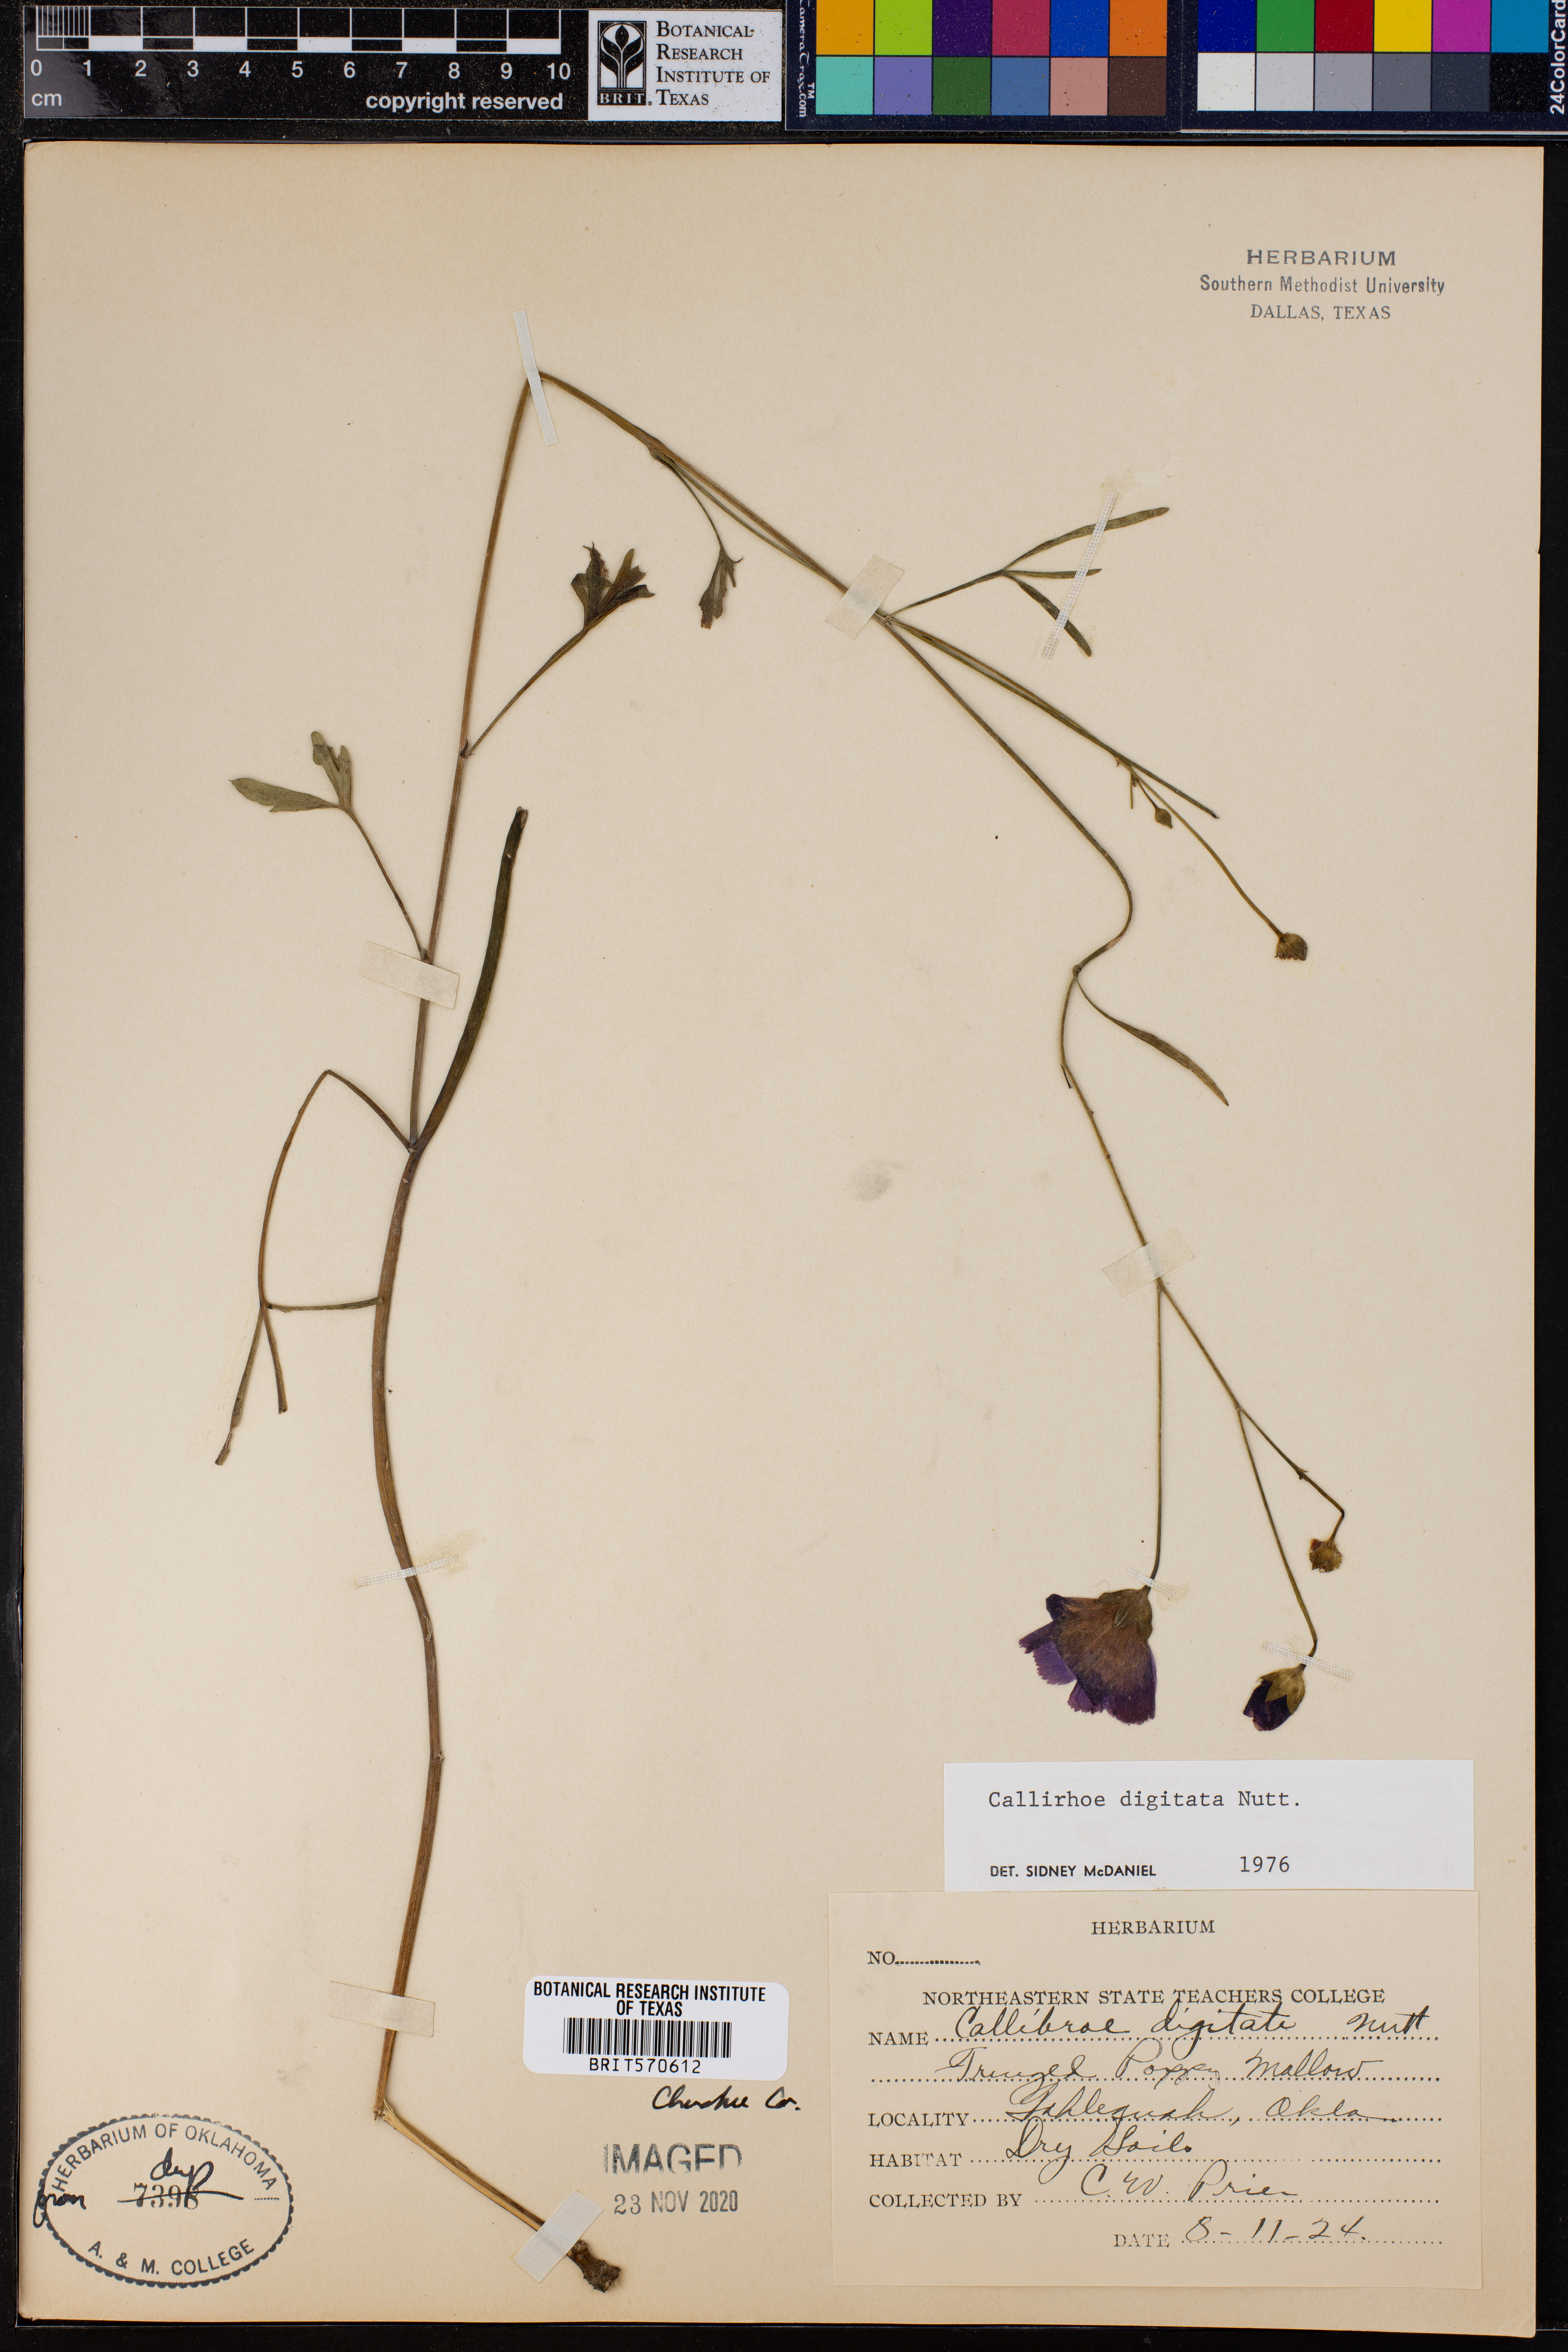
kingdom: Plantae
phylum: Tracheophyta
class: Magnoliopsida
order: Malvales
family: Malvaceae
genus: Callirhoe
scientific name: Callirhoe digitata
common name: Finger poppy-mallow
